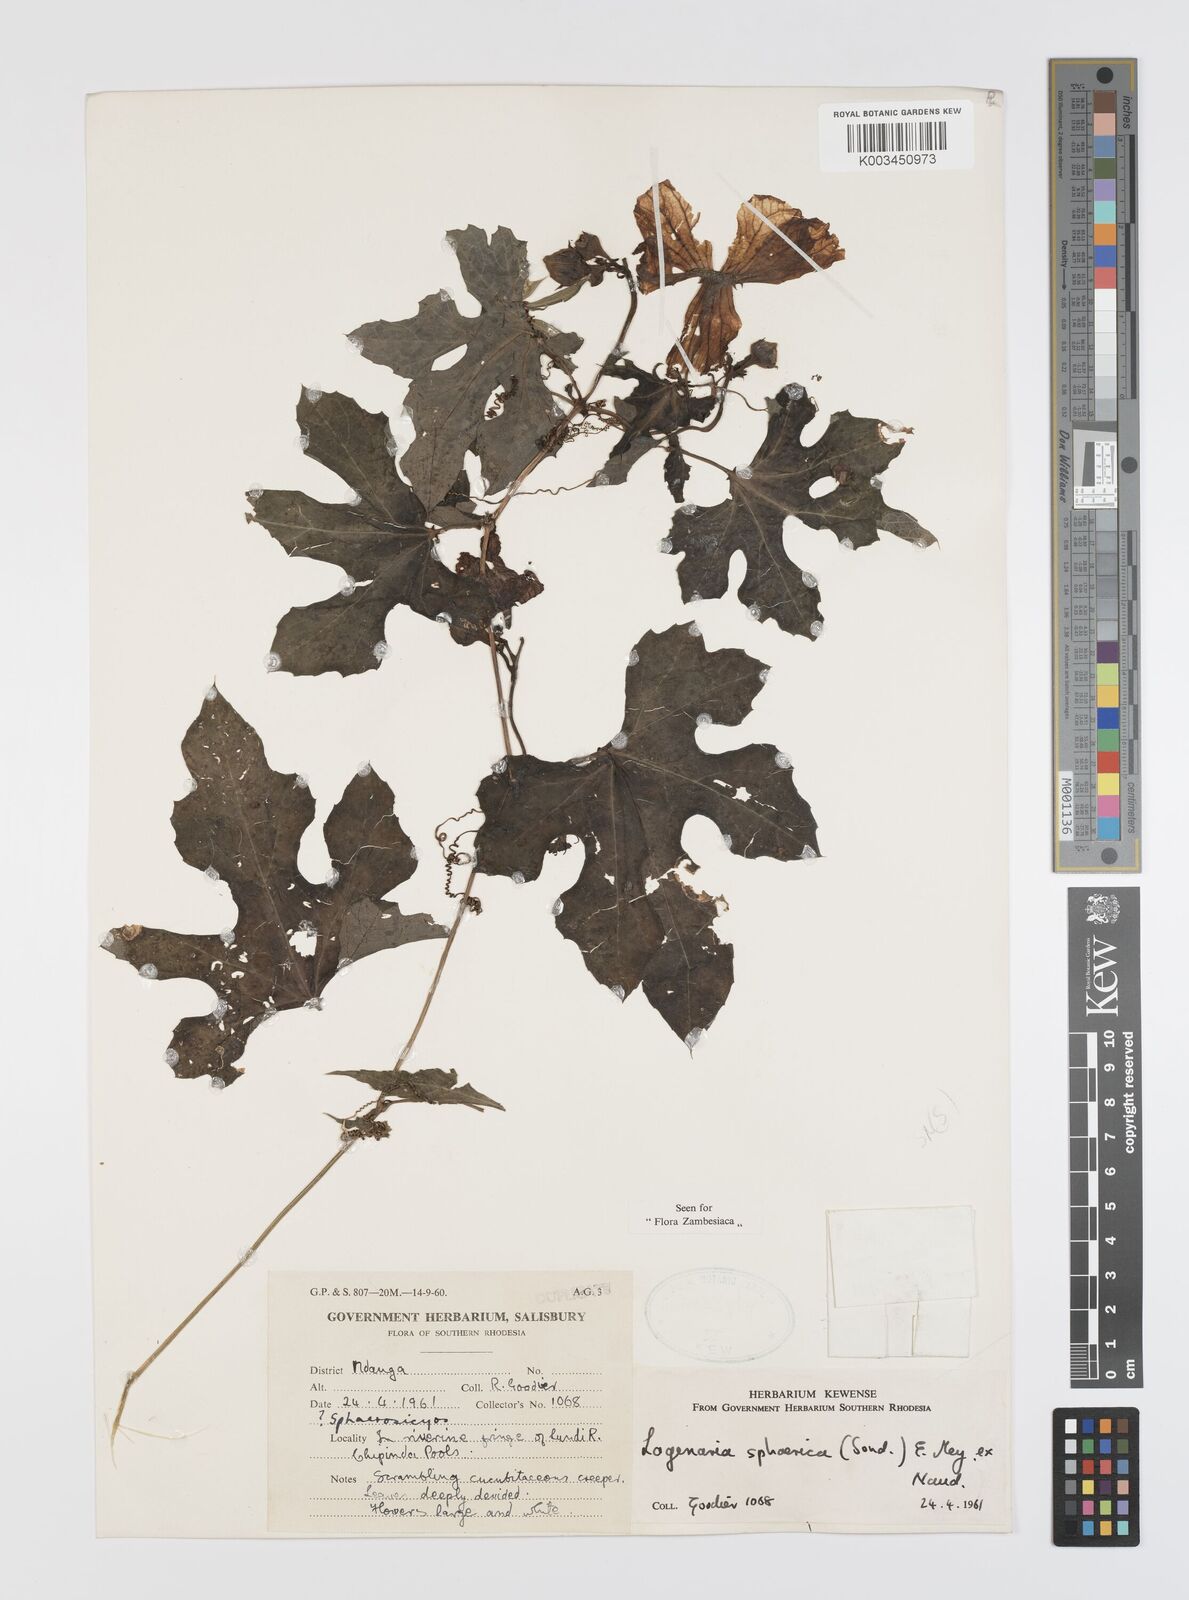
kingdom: Plantae
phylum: Tracheophyta
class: Magnoliopsida
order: Cucurbitales
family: Cucurbitaceae
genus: Lagenaria
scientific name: Lagenaria sphaerica
